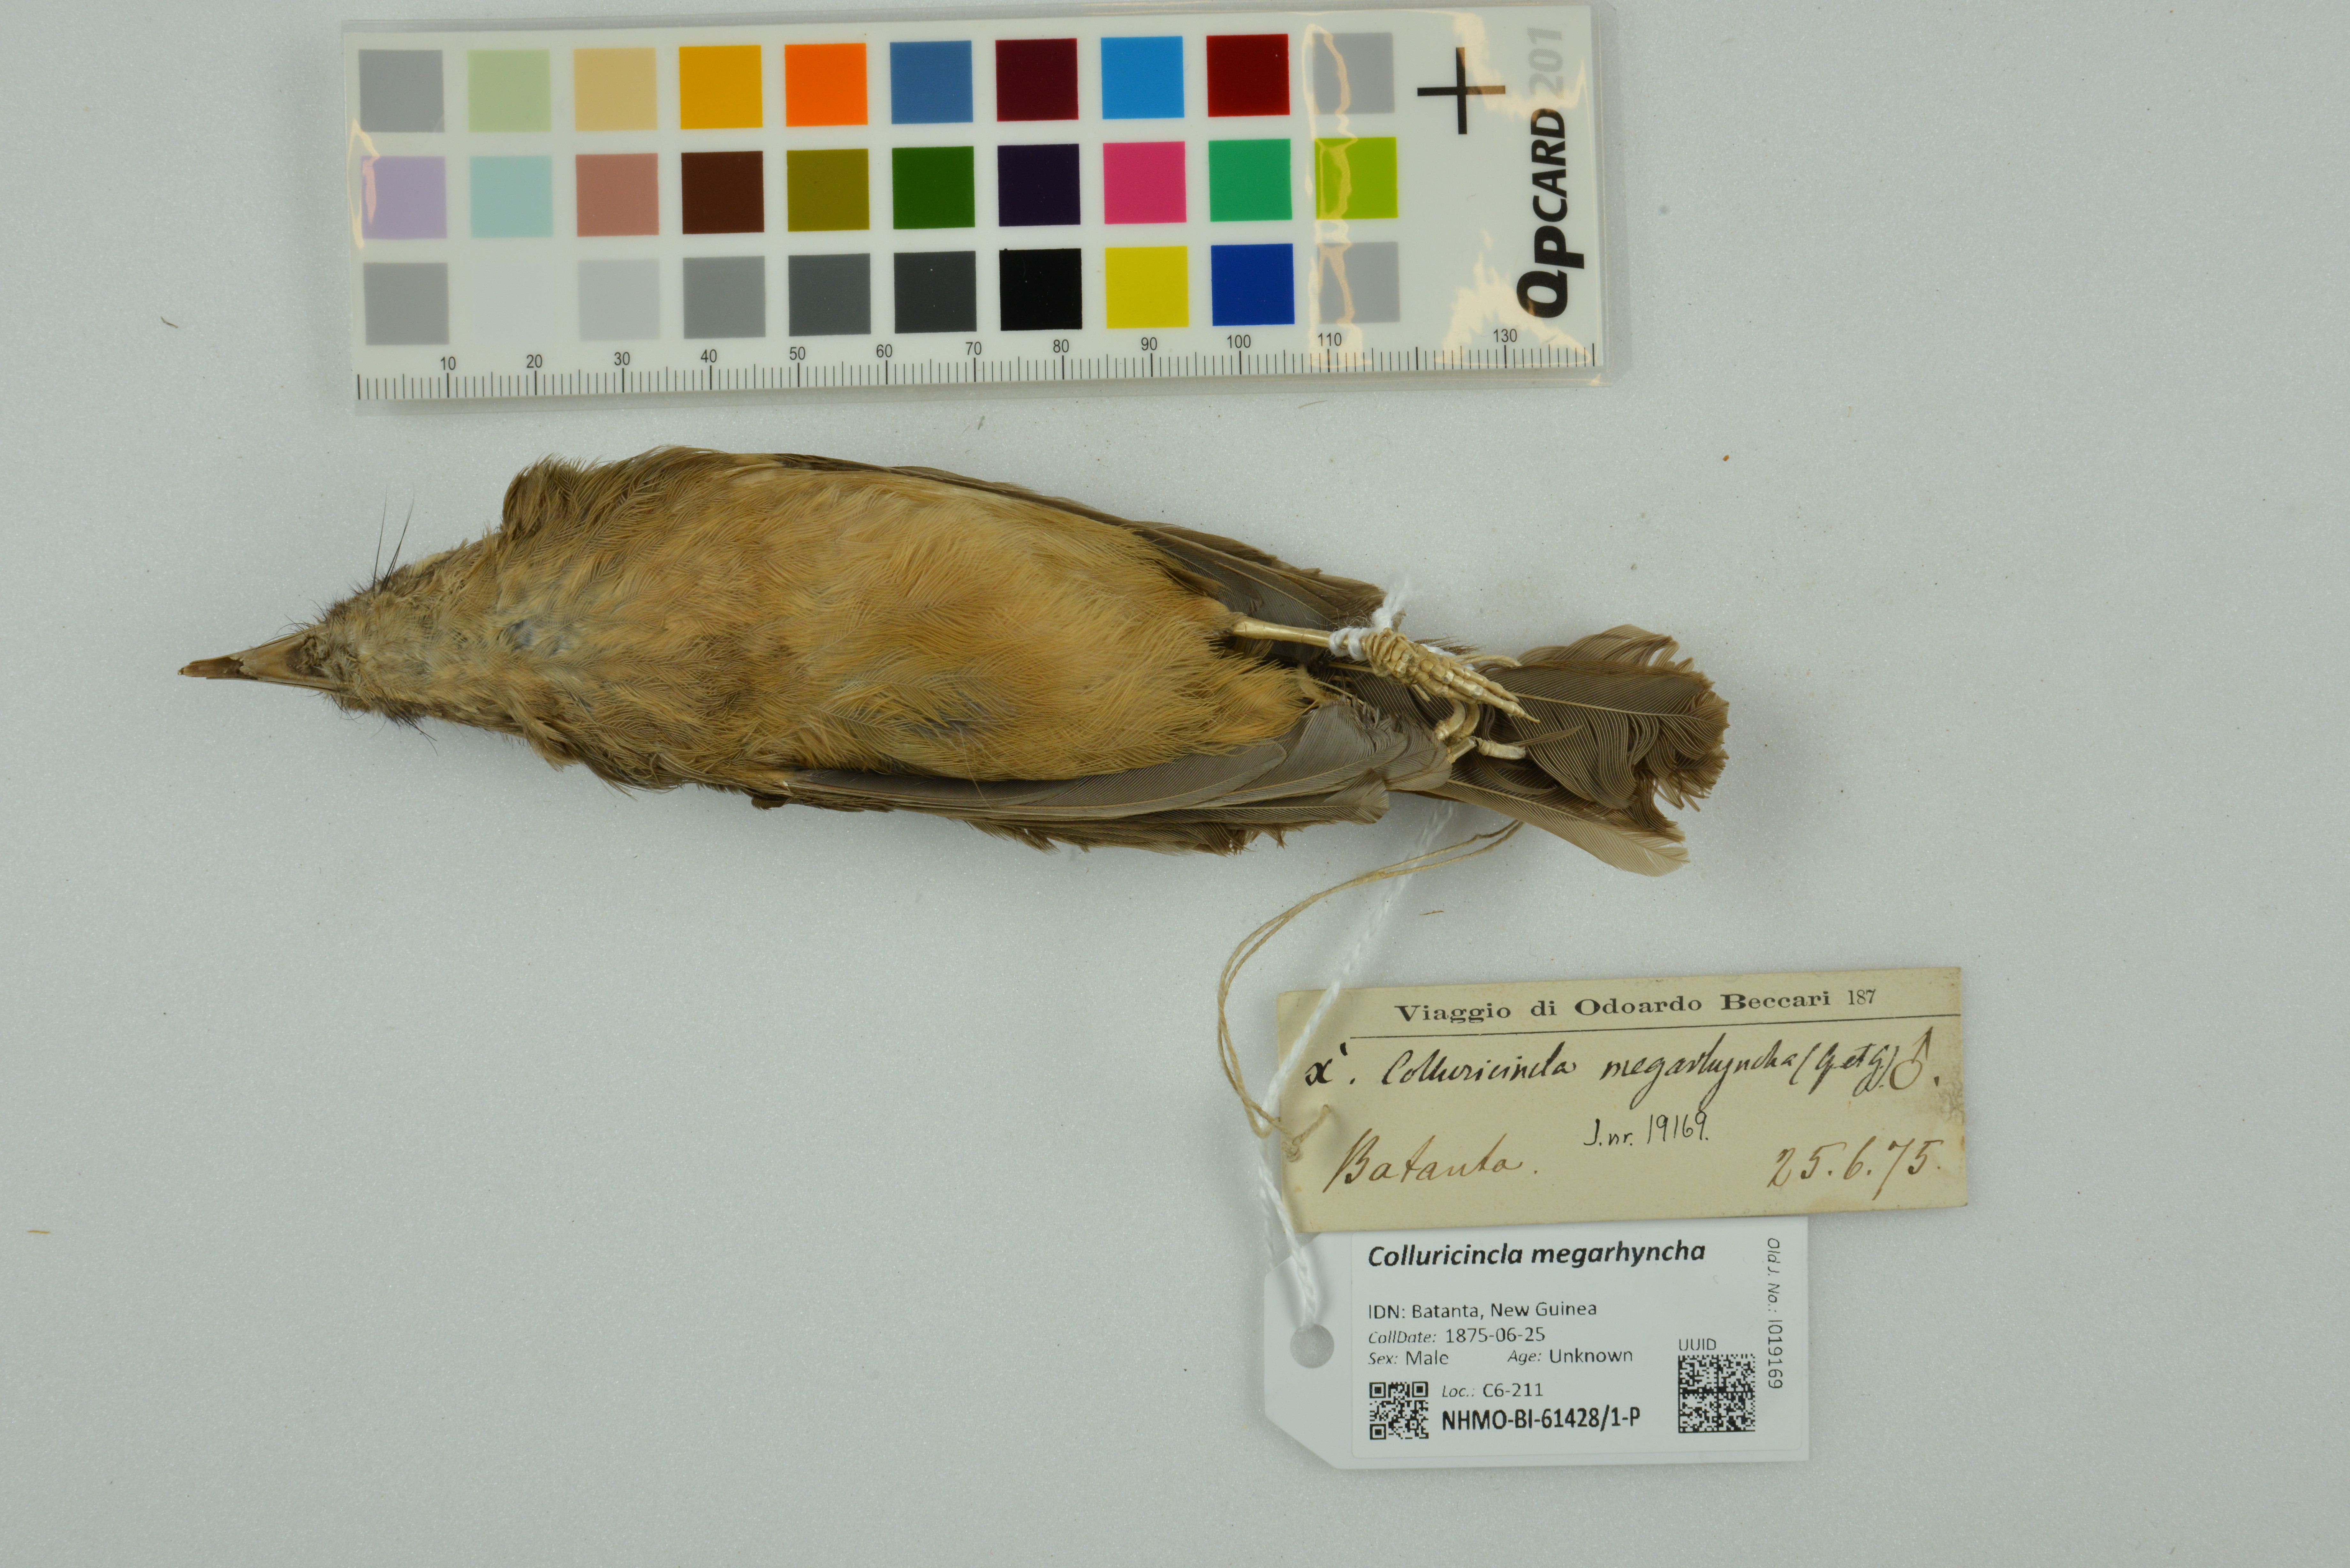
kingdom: Animalia
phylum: Chordata
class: Aves
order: Passeriformes
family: Pachycephalidae
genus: Colluricincla
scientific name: Colluricincla megarhyncha
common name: Little shrikethrush
